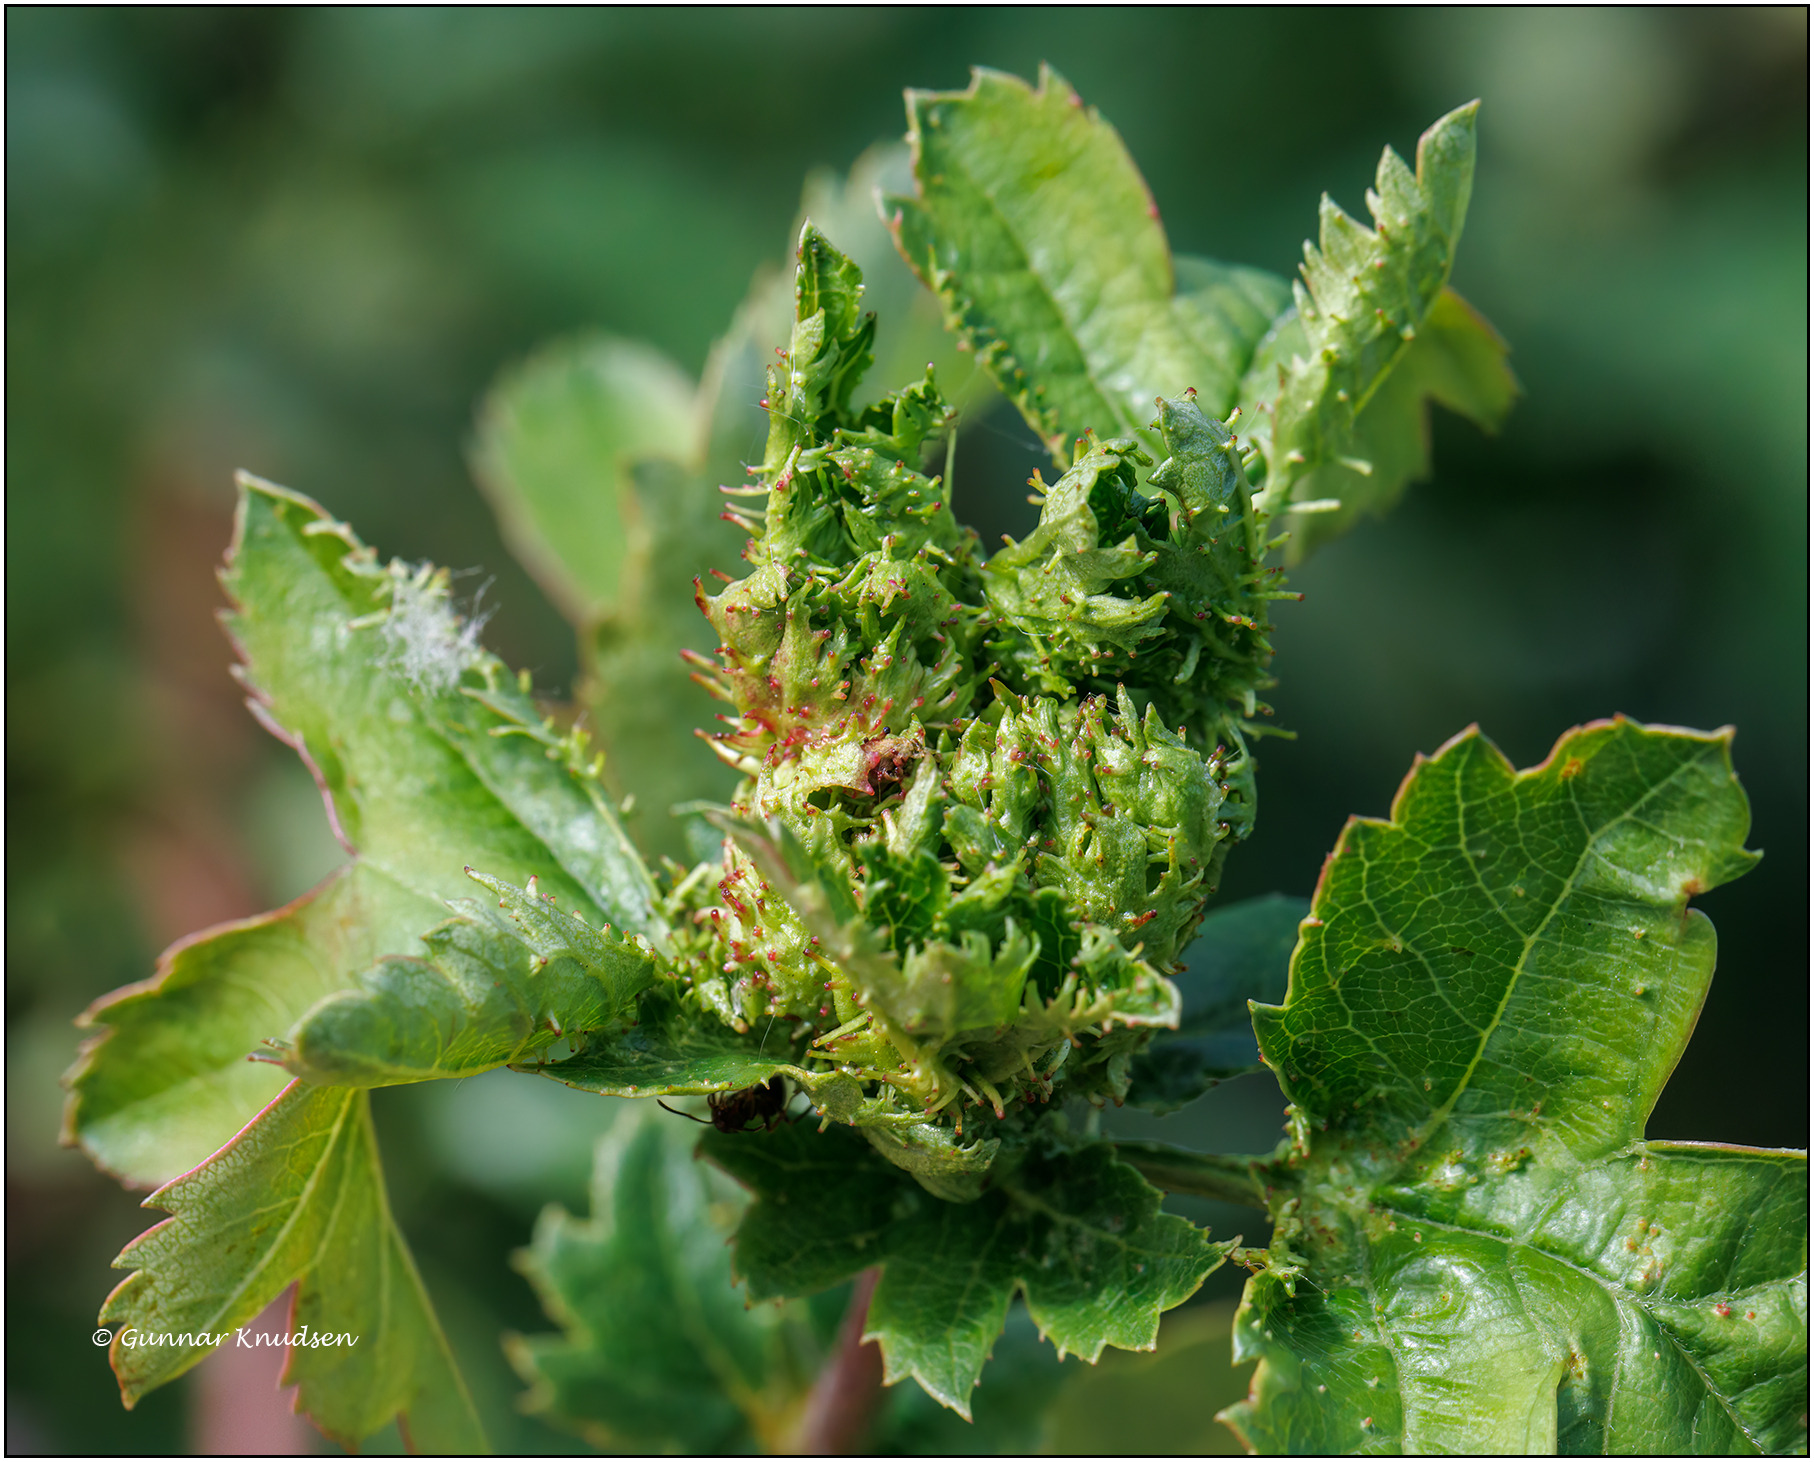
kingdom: Animalia
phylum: Arthropoda
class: Insecta
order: Diptera
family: Cecidomyiidae
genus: Dasineura
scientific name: Dasineura crataegi
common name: Tjørnerosetgalmyg
